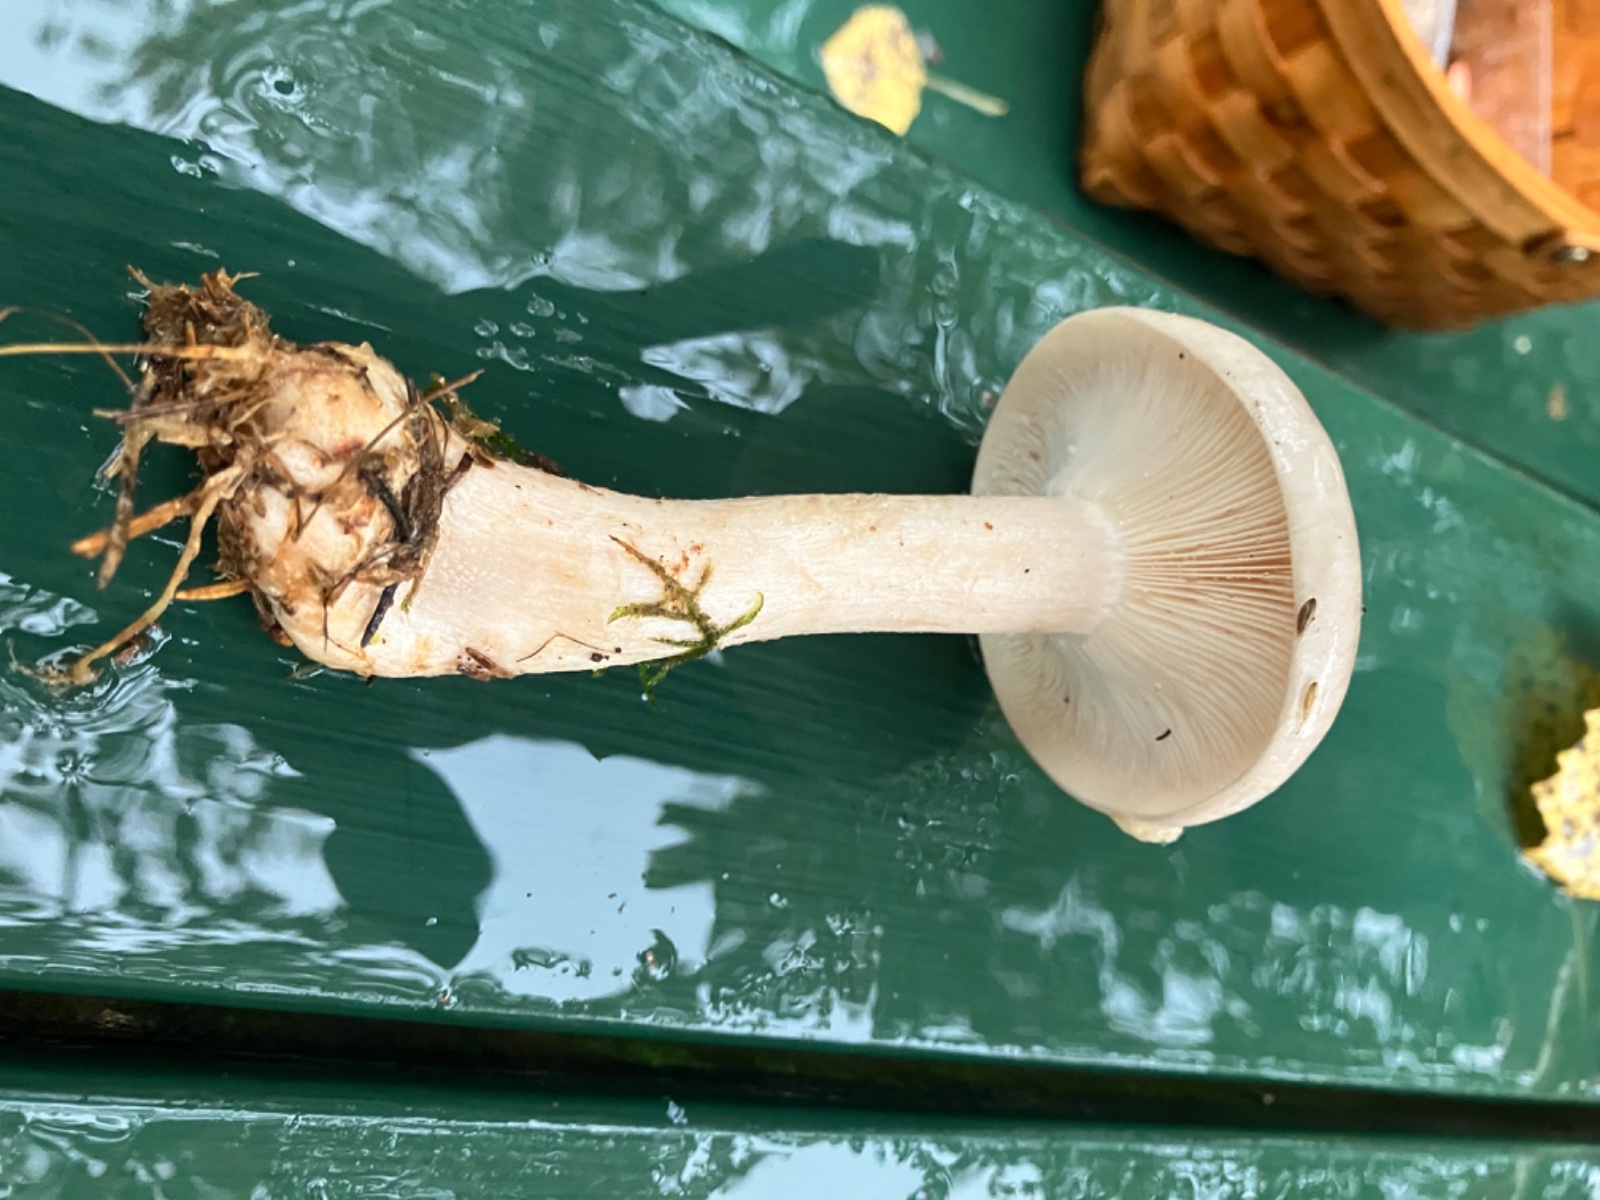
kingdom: Fungi
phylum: Basidiomycota
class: Agaricomycetes
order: Agaricales
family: Tricholomataceae
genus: Clitocybe
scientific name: Clitocybe nebularis
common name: tåge-tragthat
